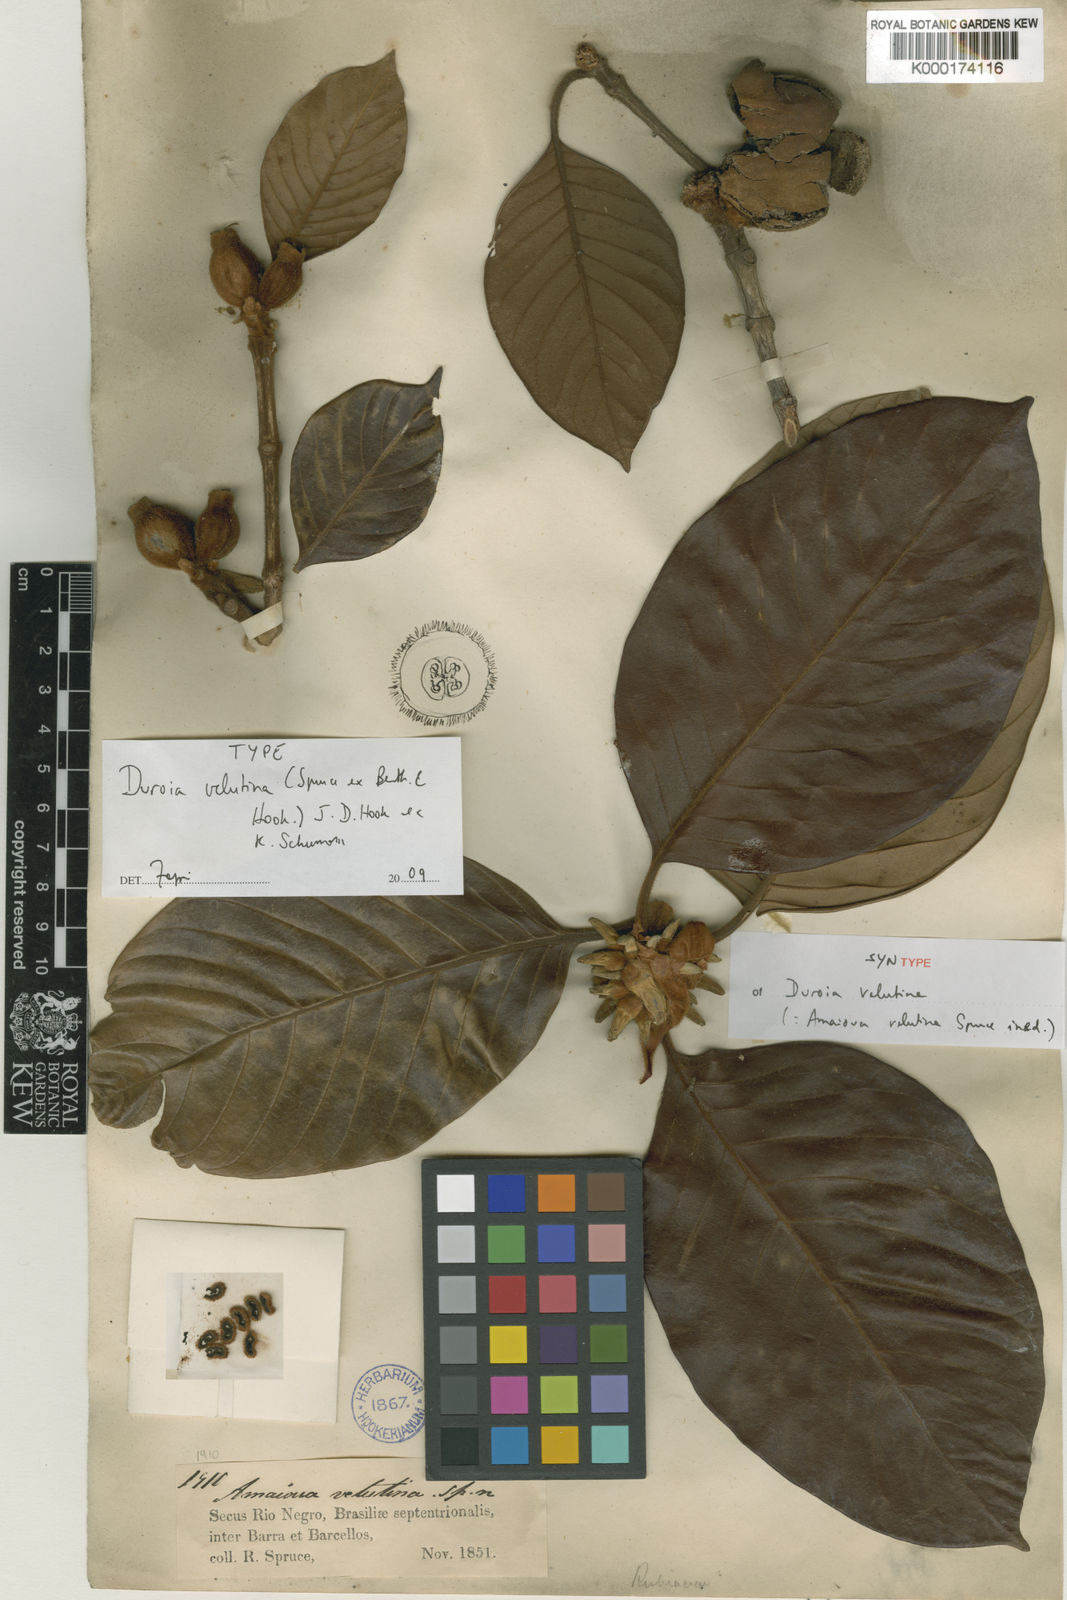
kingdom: Plantae
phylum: Tracheophyta
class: Magnoliopsida
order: Gentianales
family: Rubiaceae
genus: Duroia
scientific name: Duroia velutina
